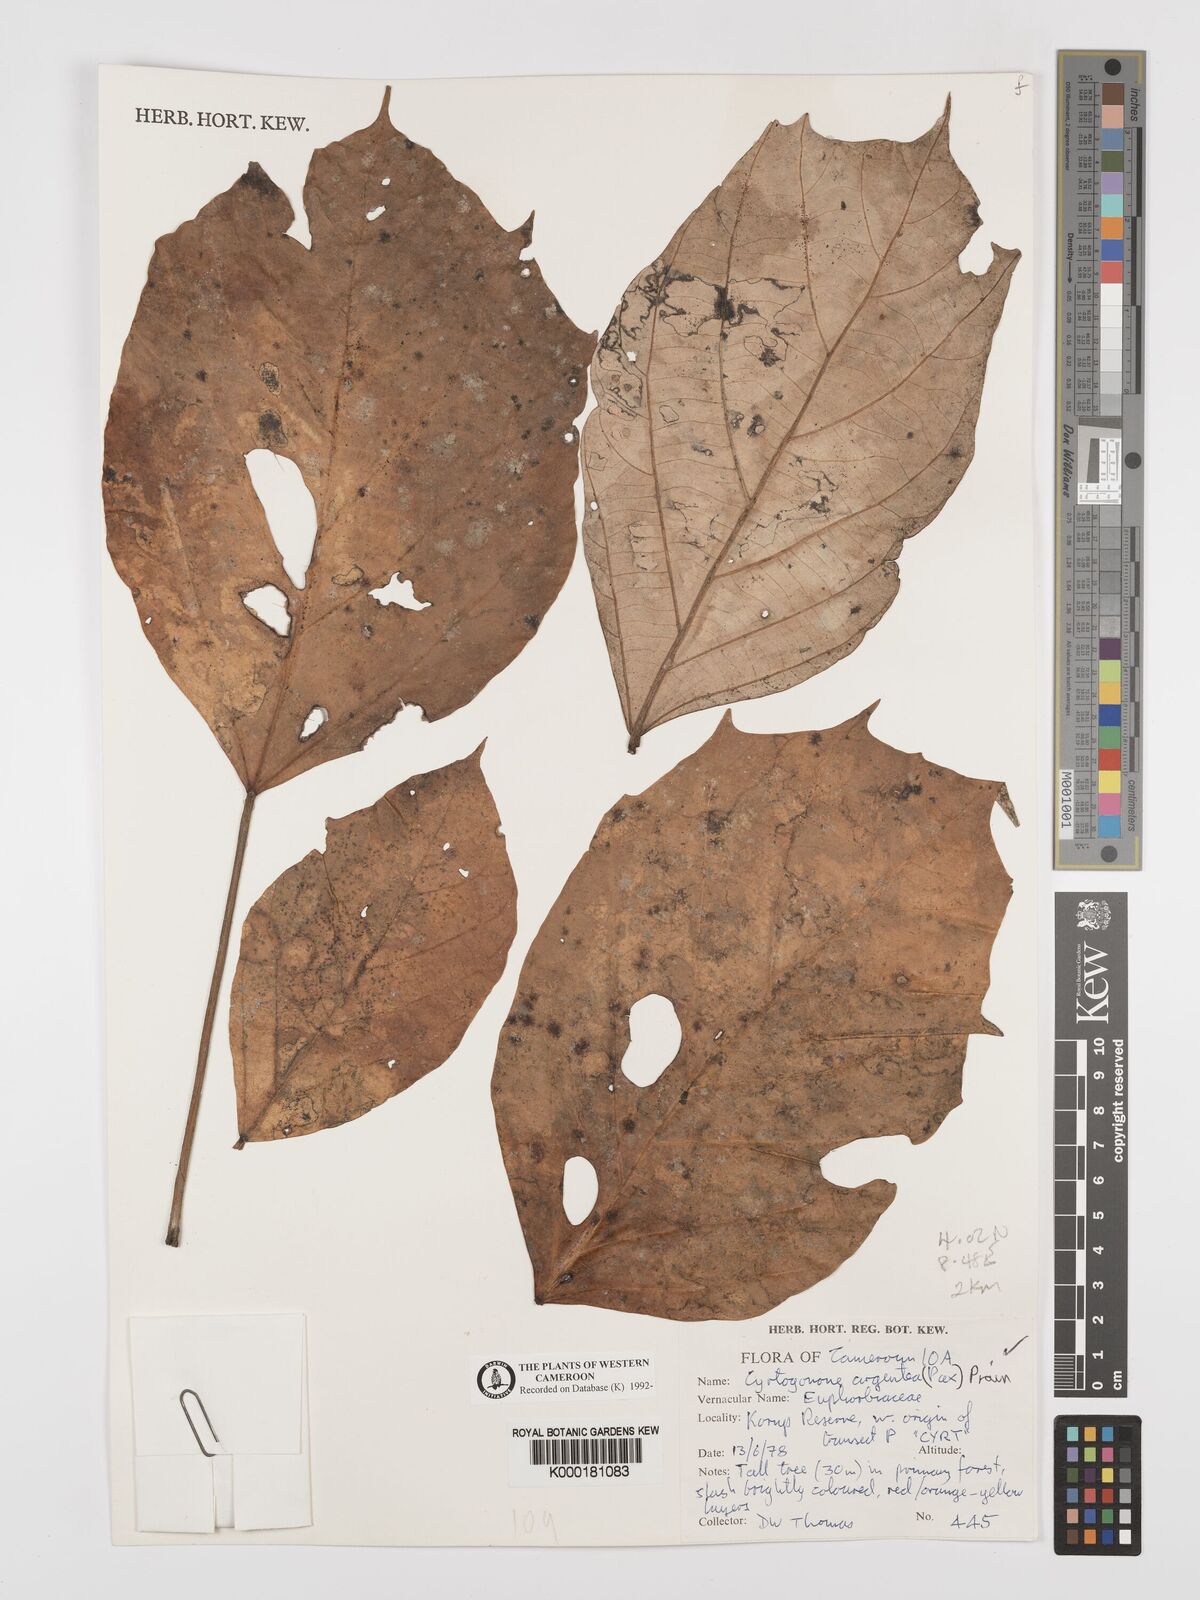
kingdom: Plantae
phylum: Tracheophyta
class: Magnoliopsida
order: Malpighiales
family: Euphorbiaceae
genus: Cyrtogonone
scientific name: Cyrtogonone argentea
